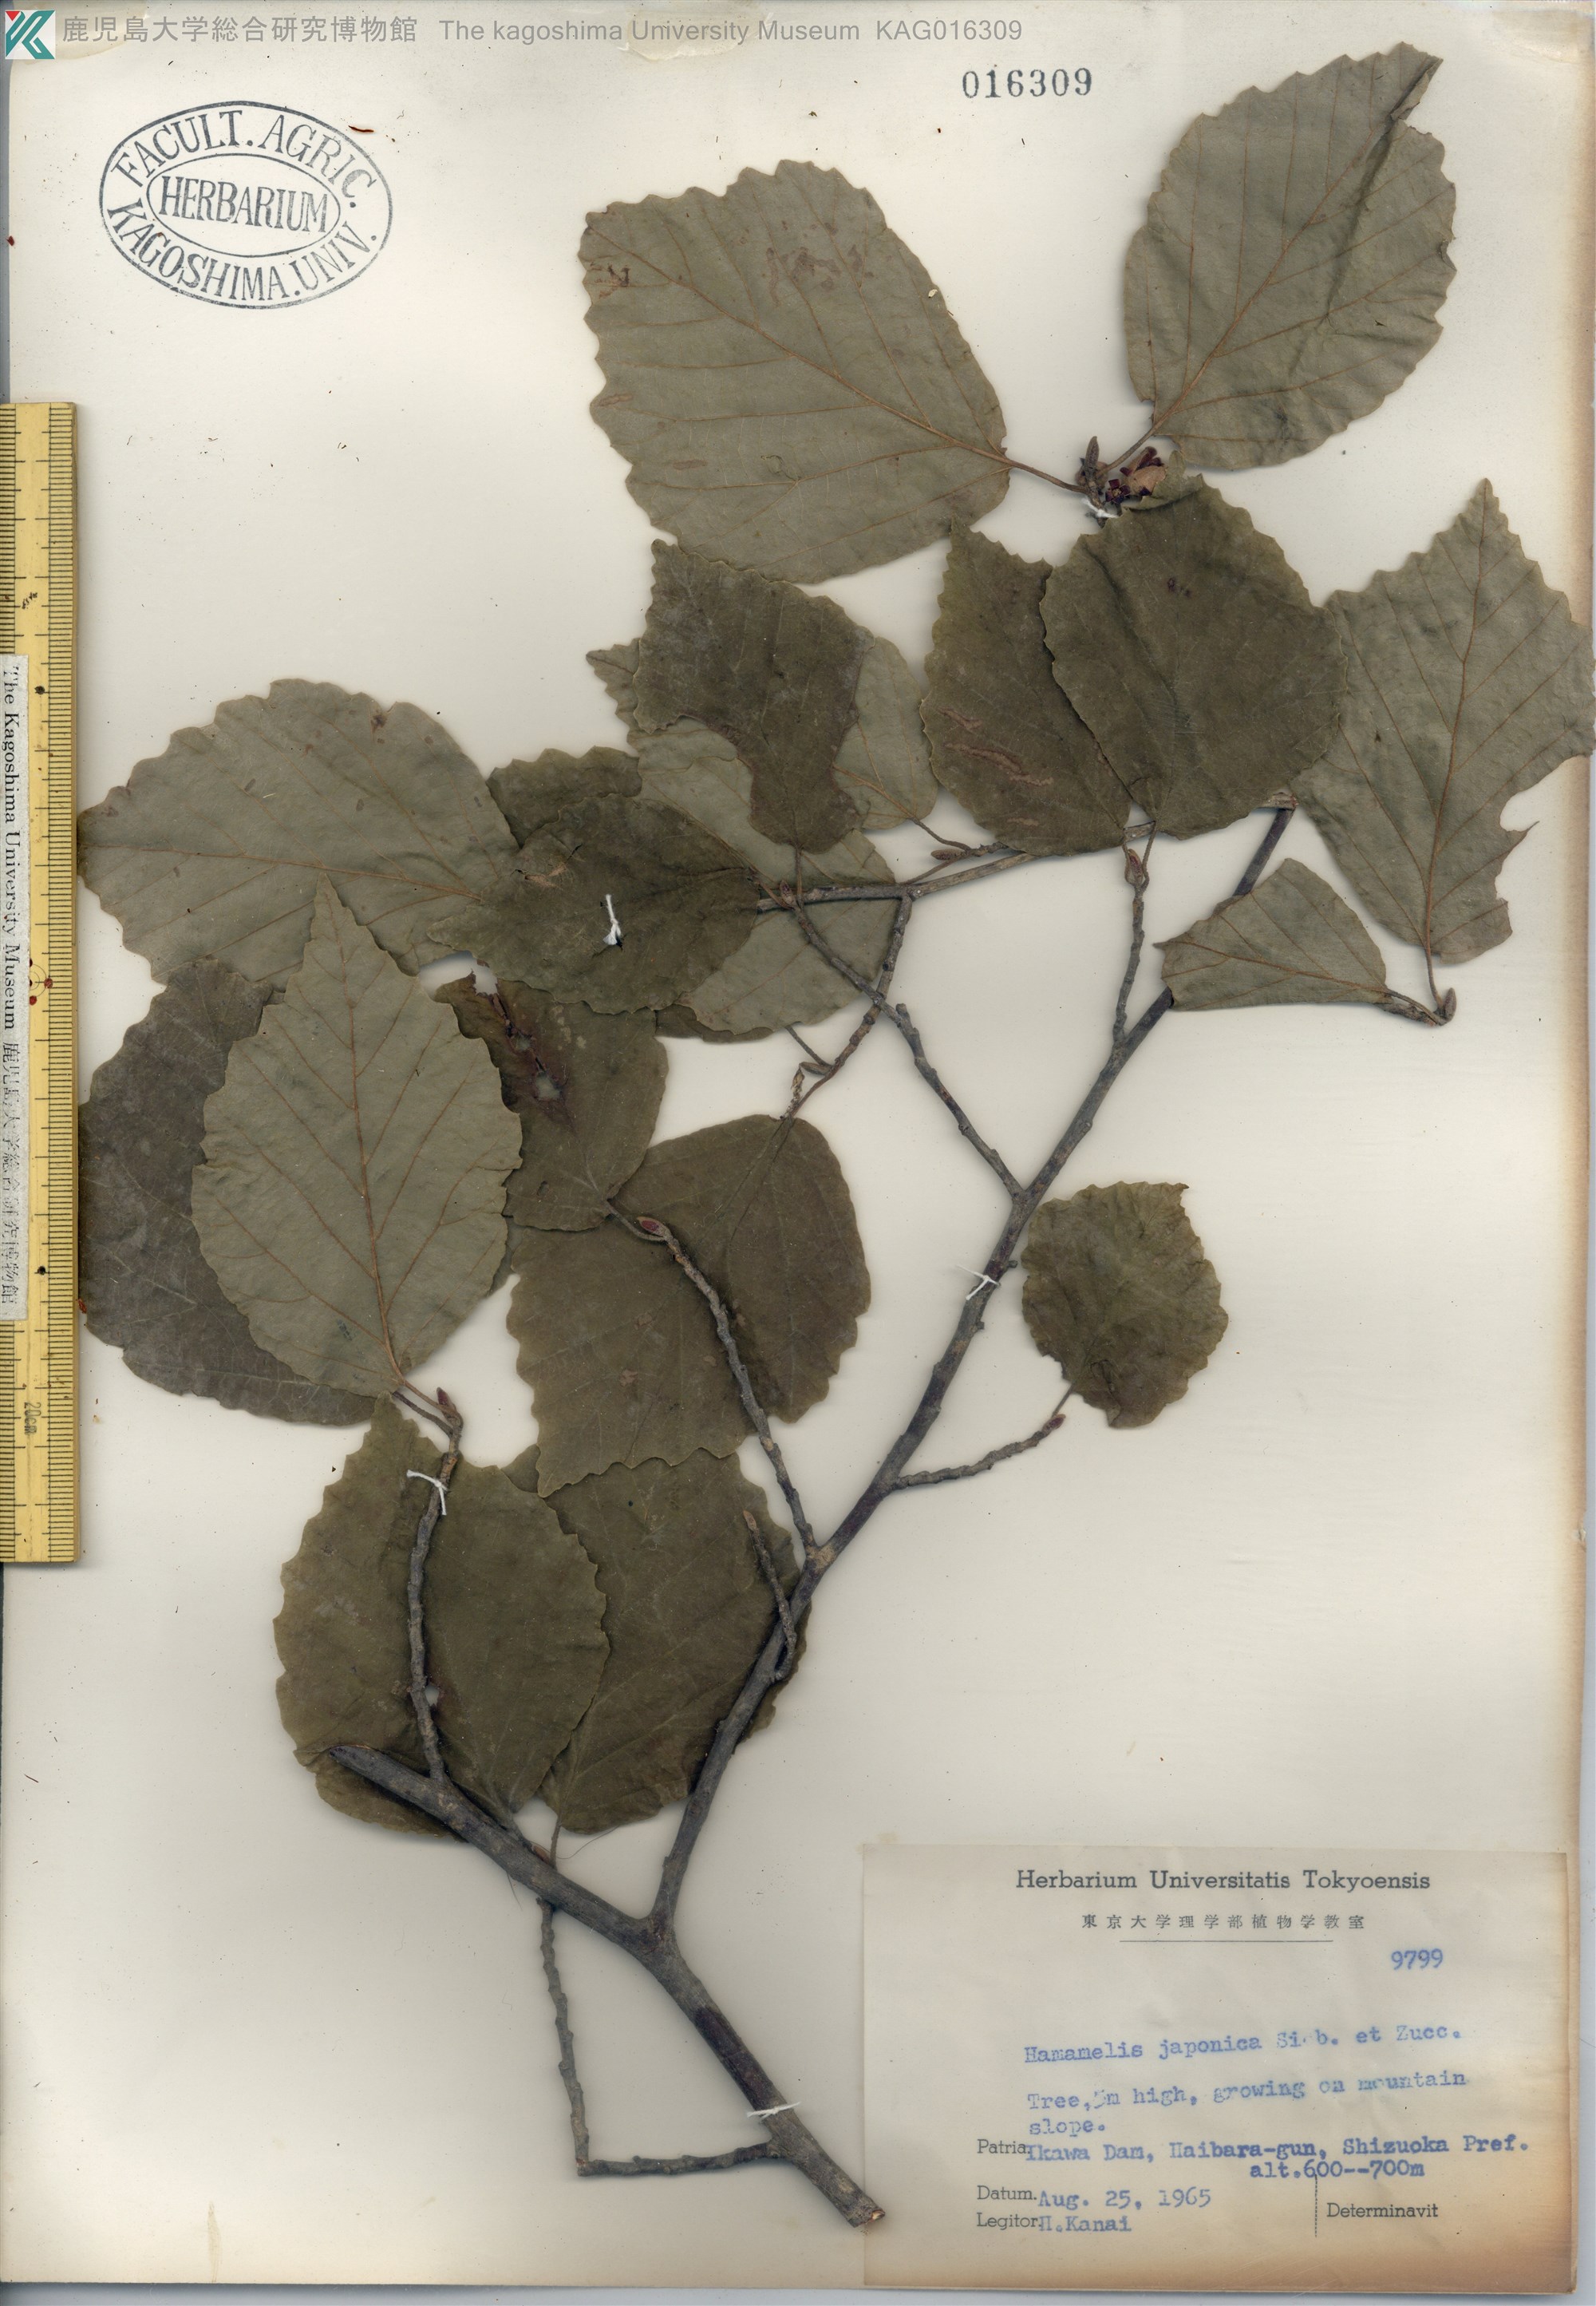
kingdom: Plantae
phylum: Tracheophyta
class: Magnoliopsida
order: Saxifragales
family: Hamamelidaceae
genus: Hamamelis
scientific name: Hamamelis japonica
